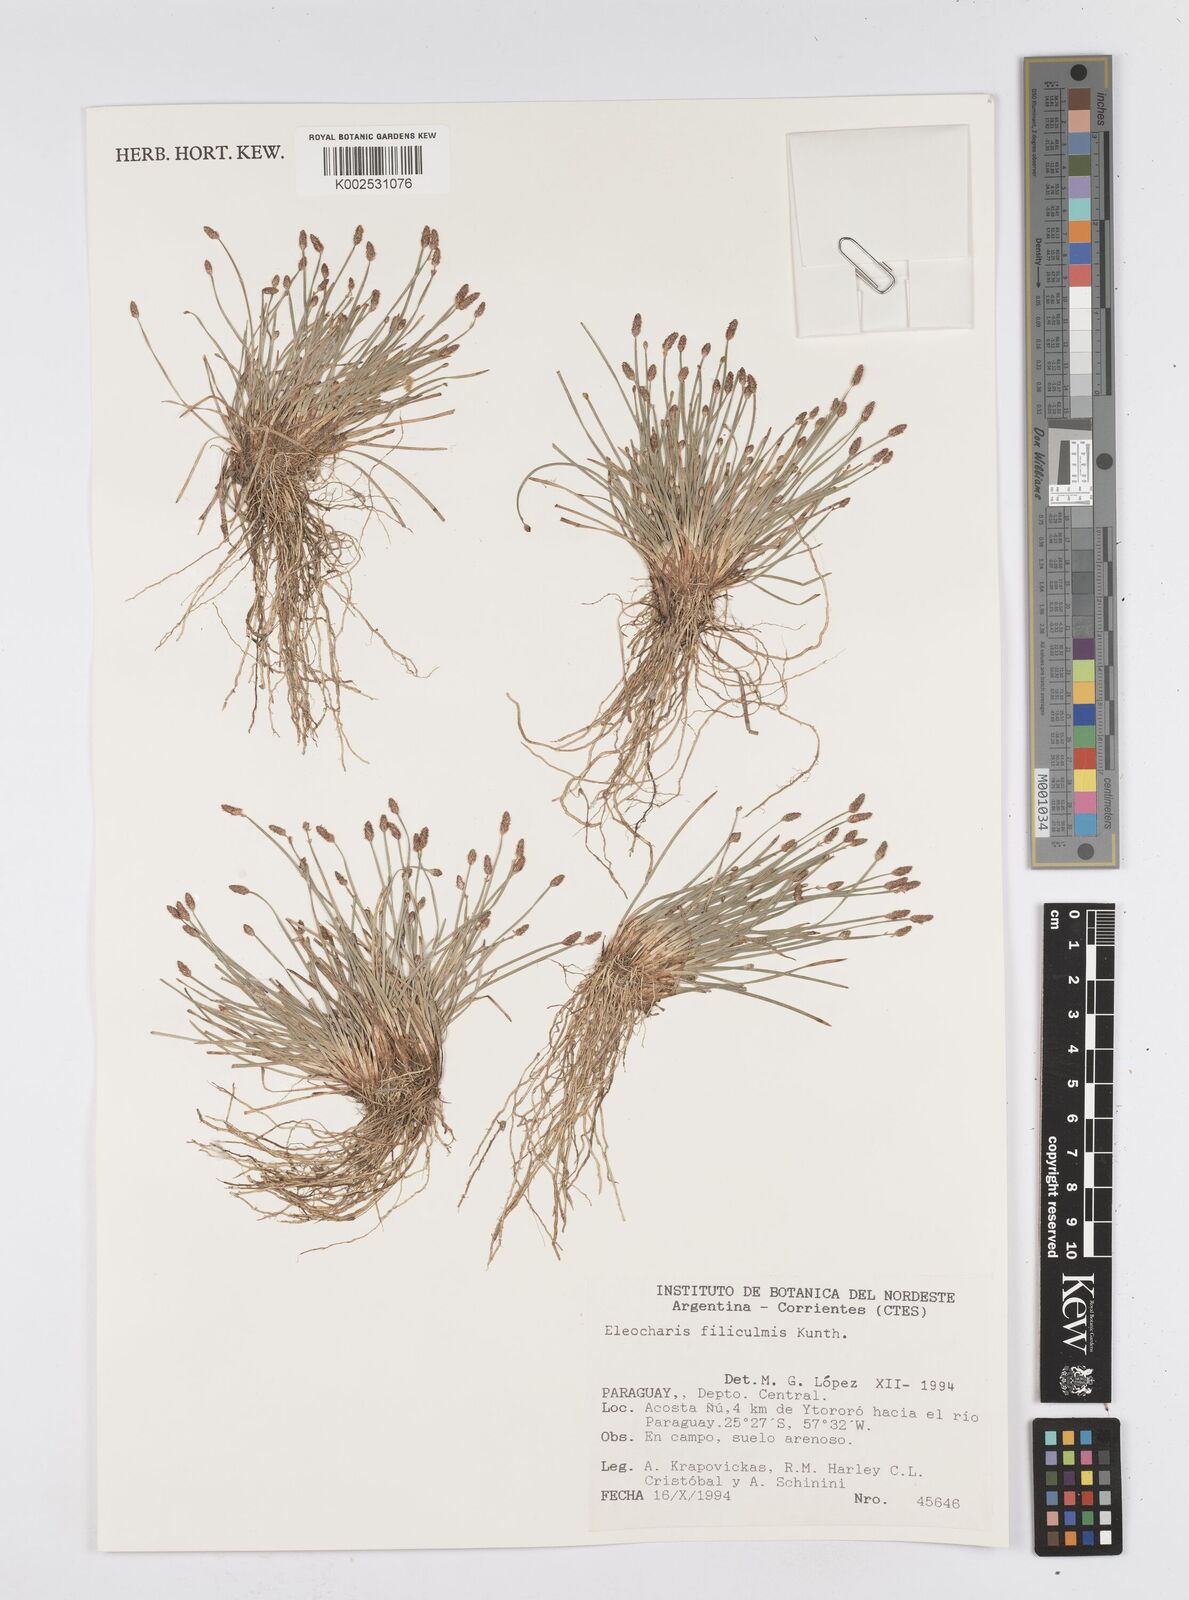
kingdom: Plantae
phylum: Tracheophyta
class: Liliopsida
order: Poales
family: Cyperaceae
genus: Eleocharis
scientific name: Eleocharis filiculmis
